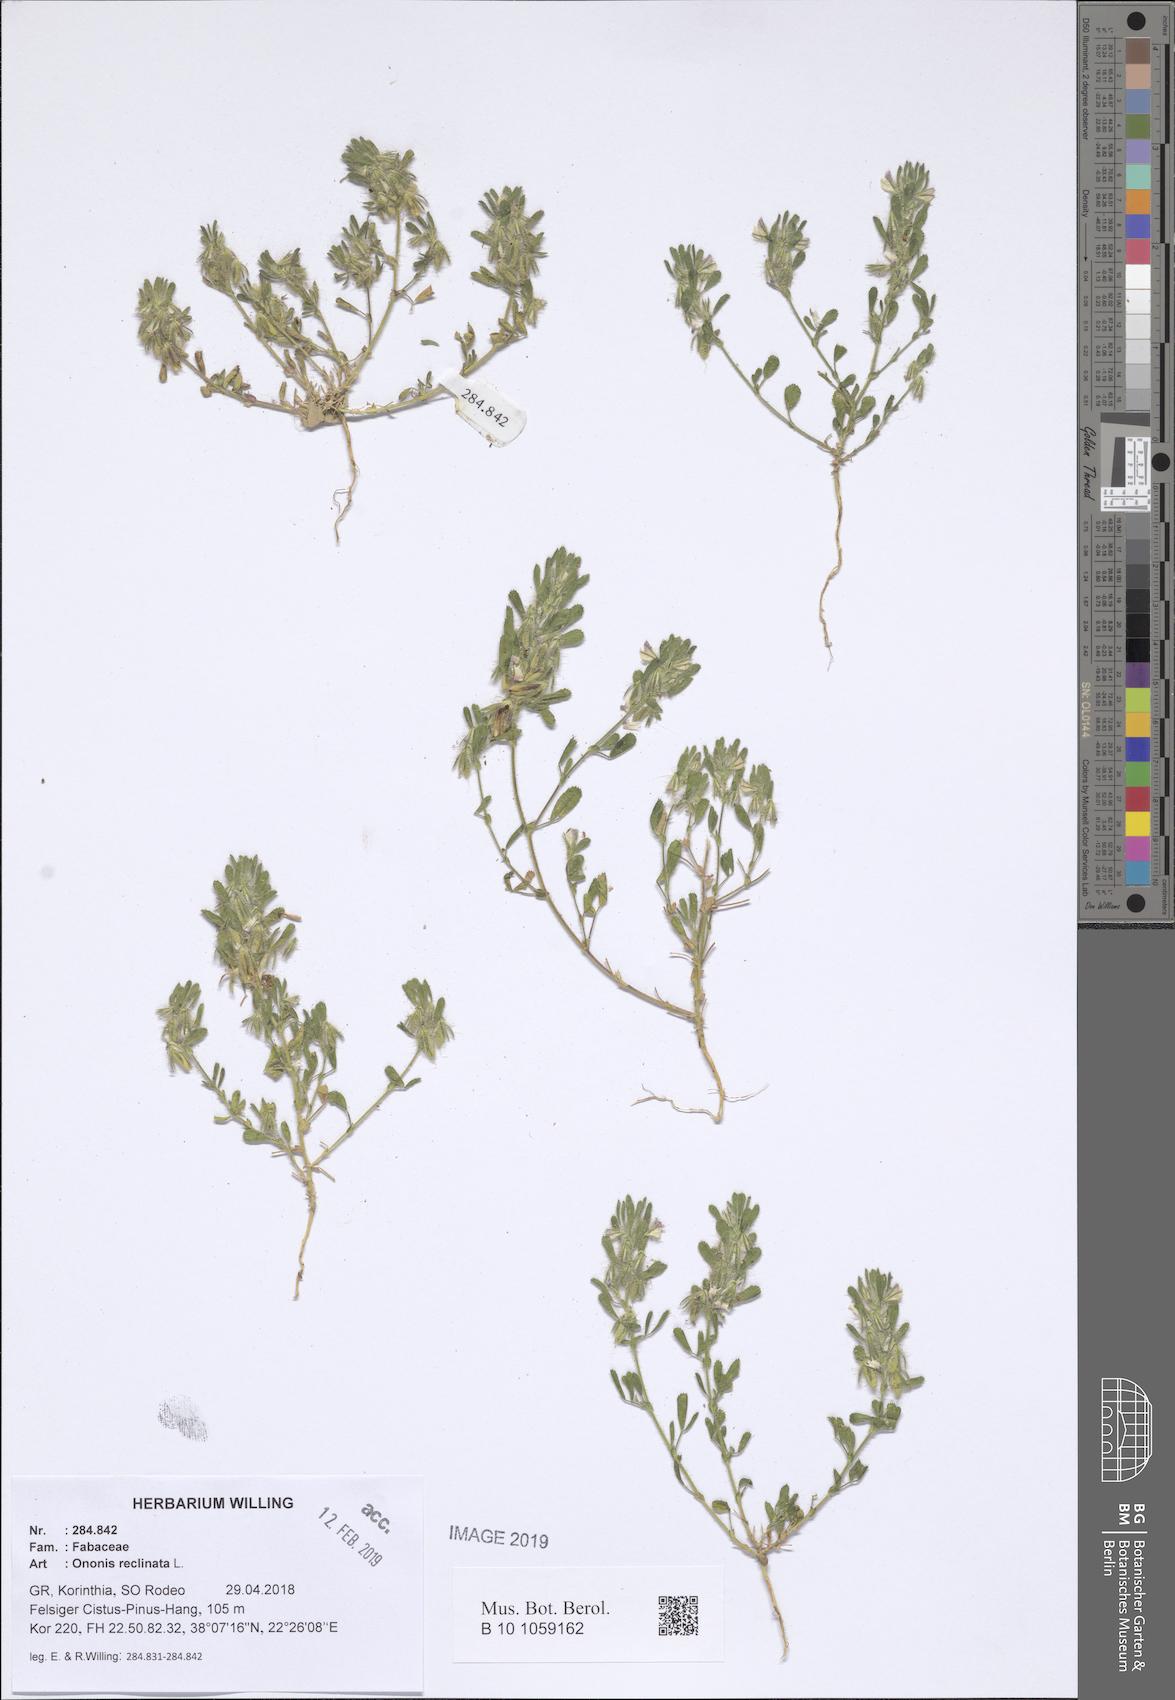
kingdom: Plantae
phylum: Tracheophyta
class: Magnoliopsida
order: Fabales
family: Fabaceae
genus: Ononis
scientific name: Ononis reclinata
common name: Small restharrow
